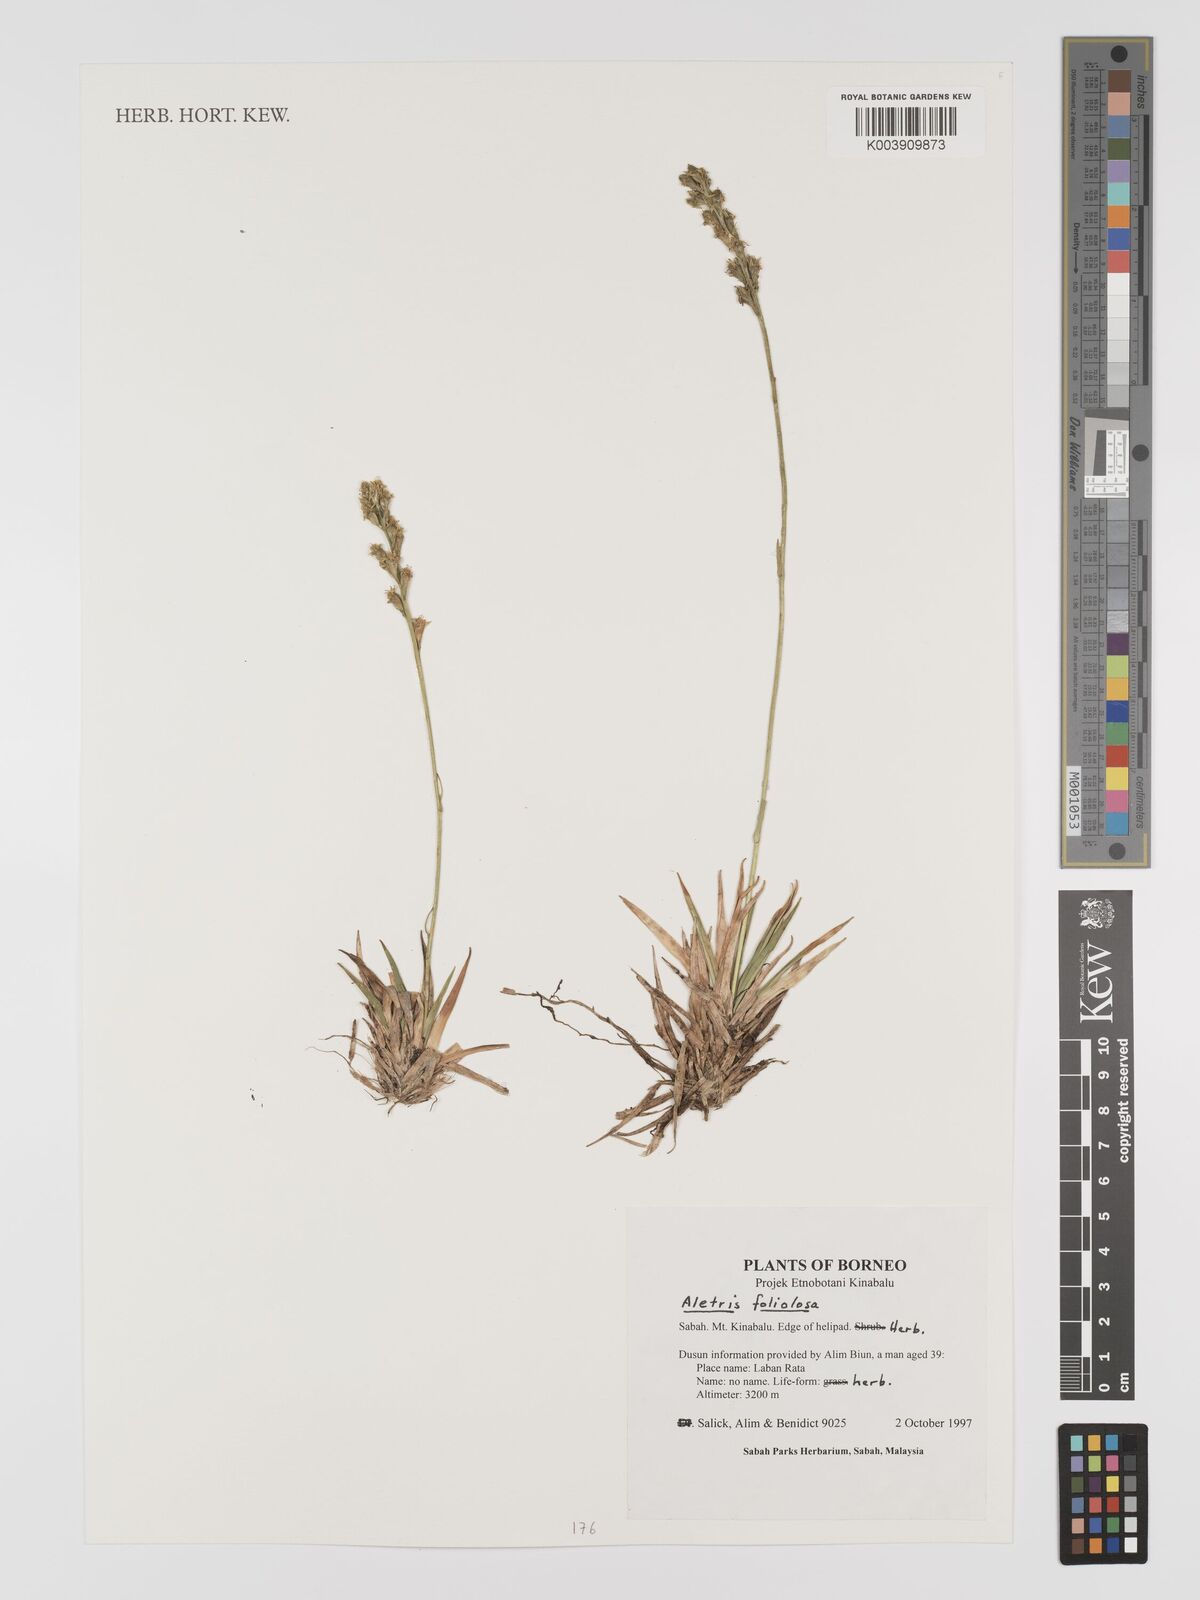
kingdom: Plantae
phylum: Tracheophyta
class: Liliopsida
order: Dioscoreales
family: Nartheciaceae
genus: Aletris
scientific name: Aletris foliolosa
